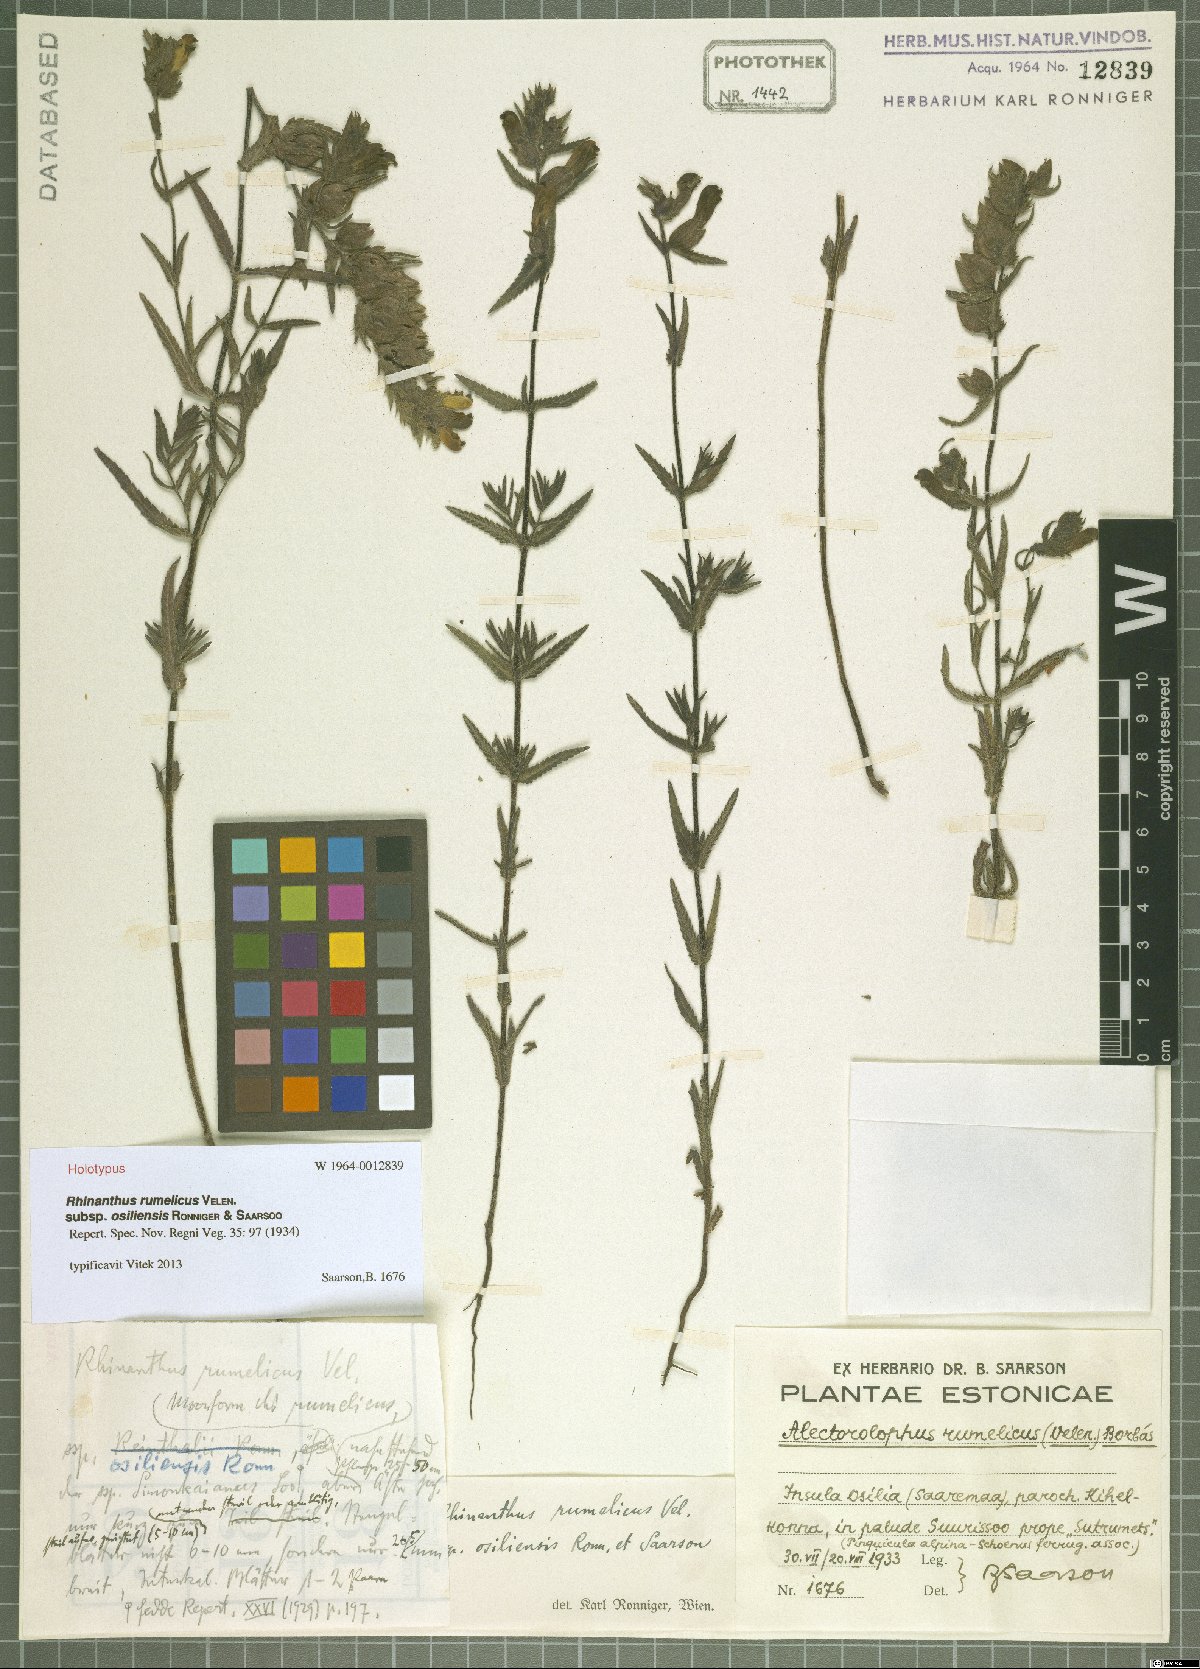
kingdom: Plantae
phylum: Tracheophyta
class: Magnoliopsida
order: Lamiales
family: Orobanchaceae
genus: Rhinanthus
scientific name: Rhinanthus osiliensis
